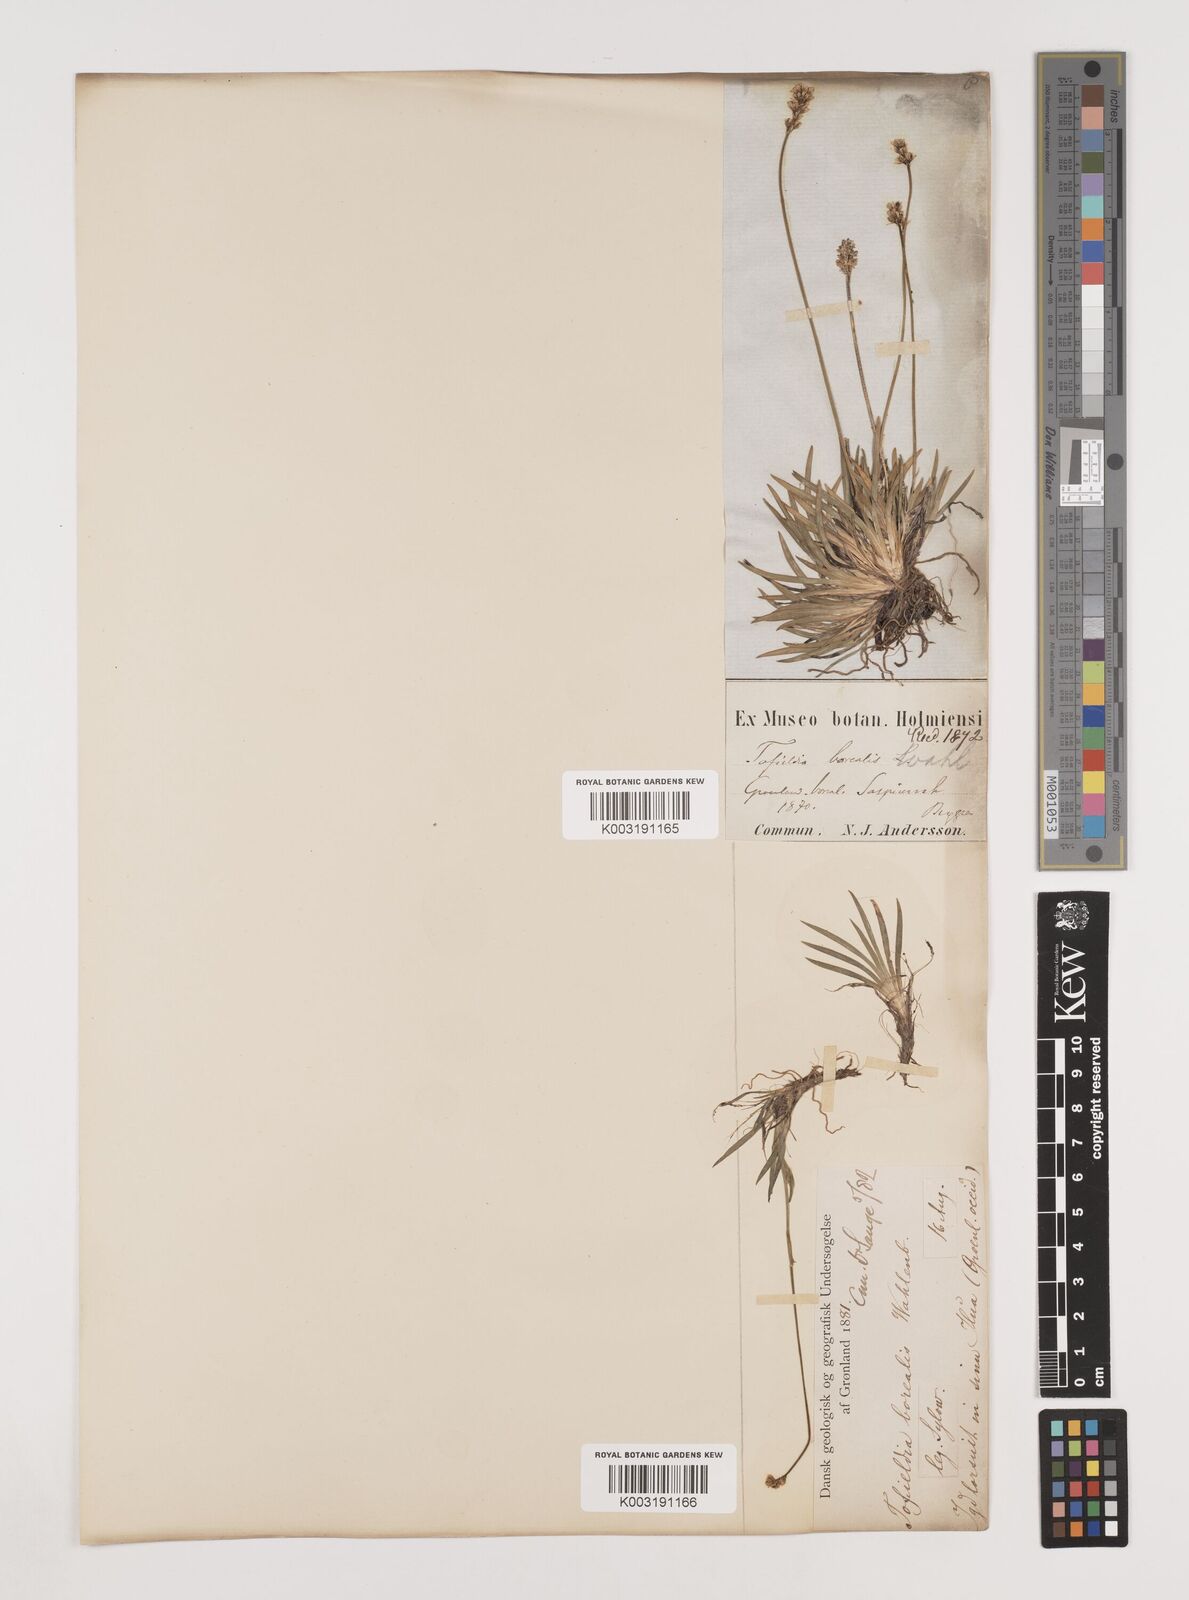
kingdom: Plantae
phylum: Tracheophyta
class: Liliopsida
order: Alismatales
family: Tofieldiaceae
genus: Tofieldia
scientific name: Tofieldia pusilla
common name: Scottish false asphodel
